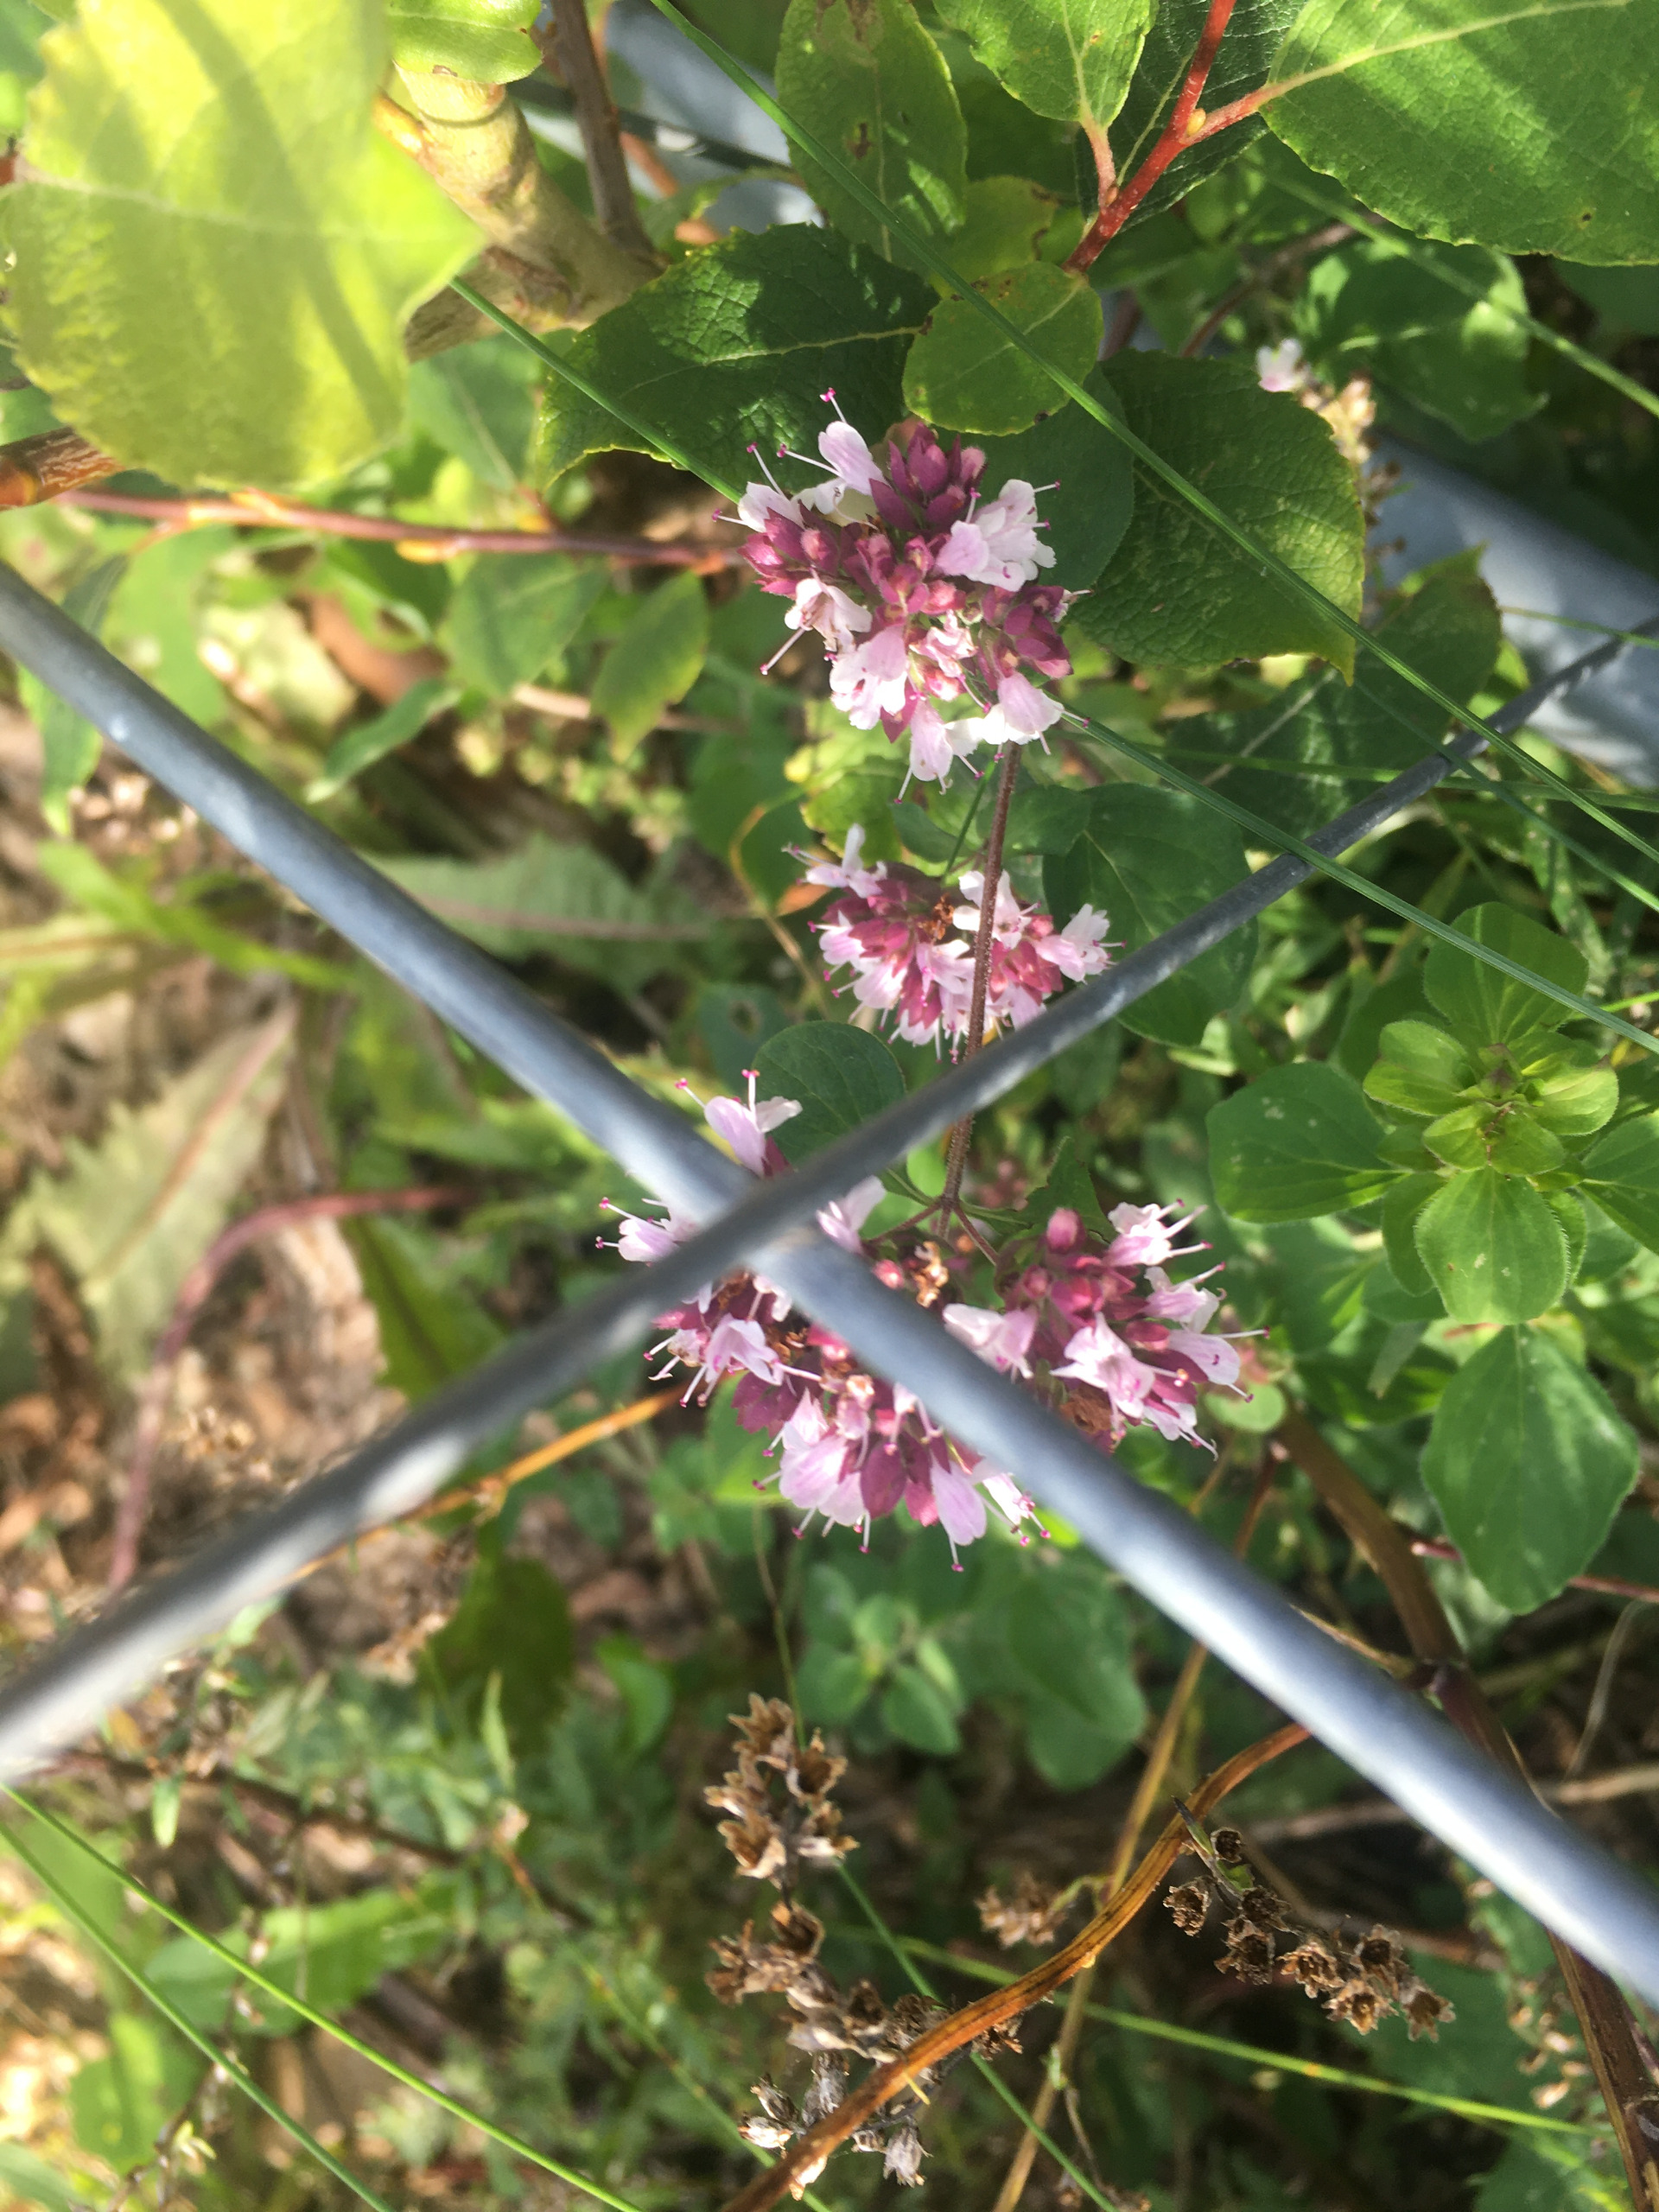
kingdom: Plantae
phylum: Tracheophyta
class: Magnoliopsida
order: Lamiales
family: Lamiaceae
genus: Origanum
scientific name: Origanum vulgare
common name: Merian
